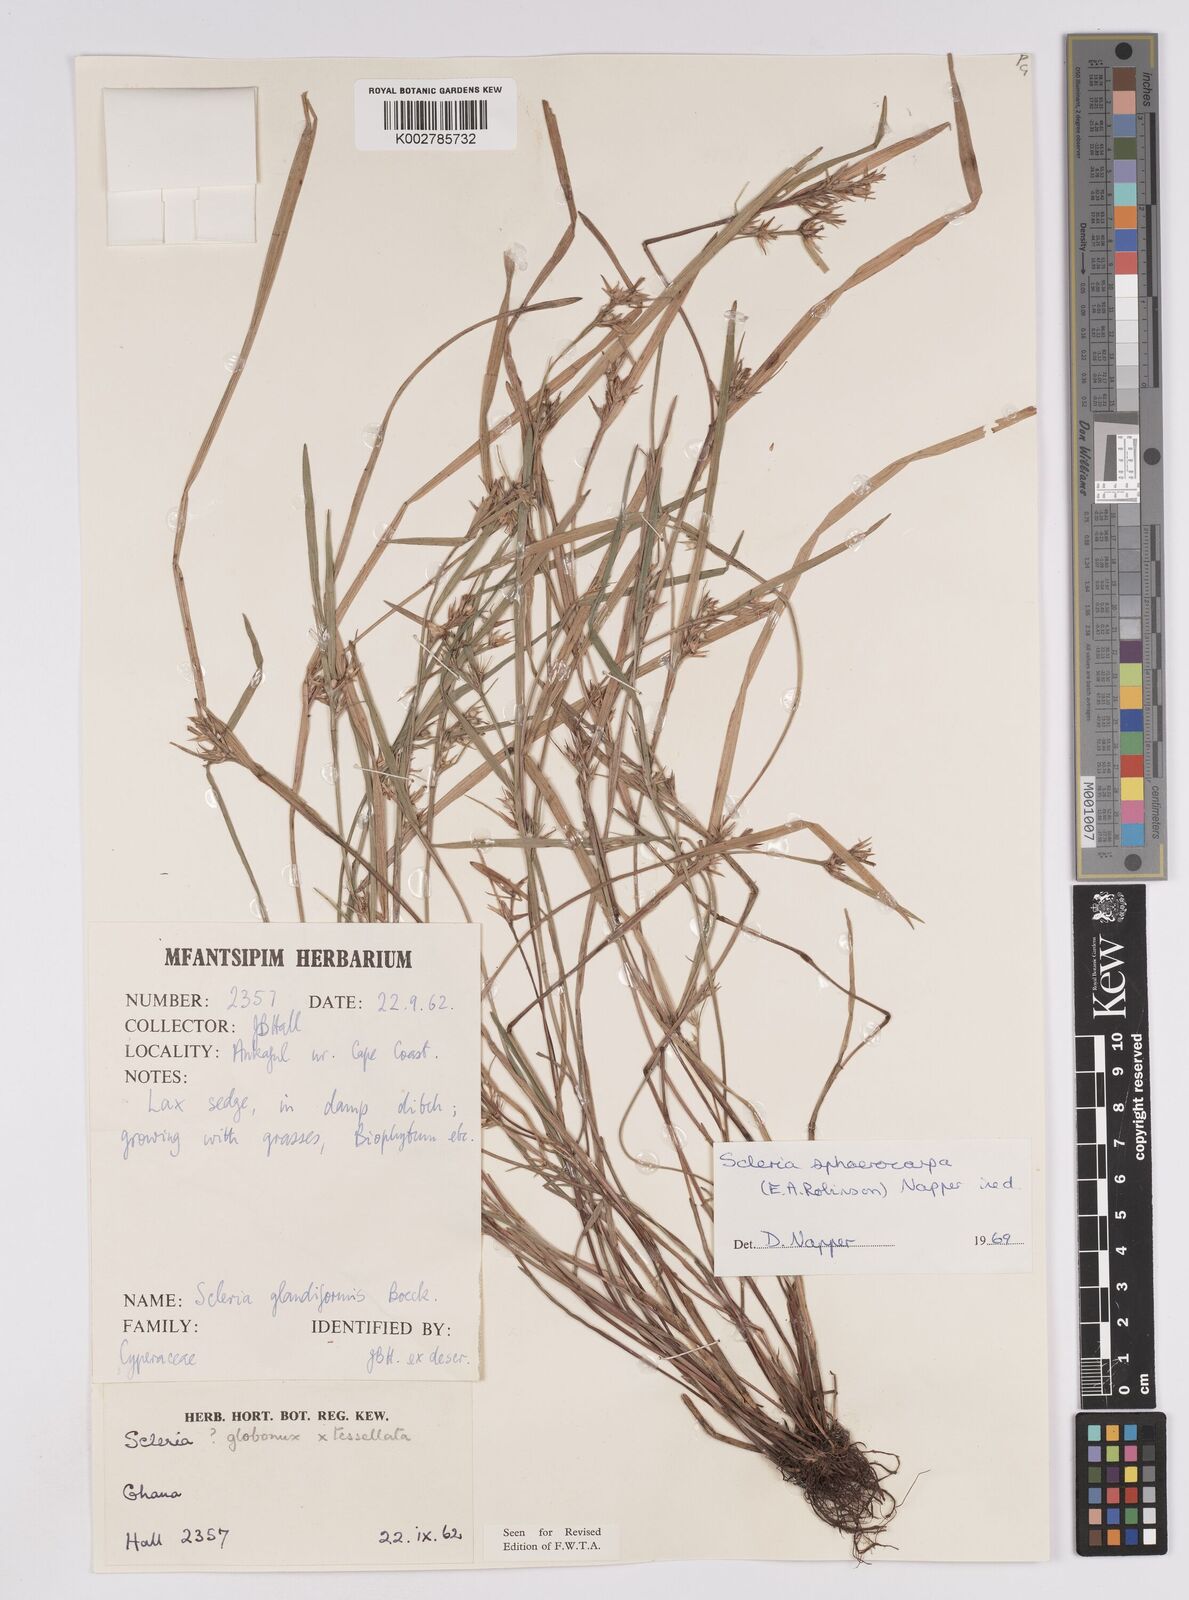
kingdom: Plantae
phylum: Tracheophyta
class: Liliopsida
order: Poales
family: Cyperaceae
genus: Scleria
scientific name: Scleria tessellata
